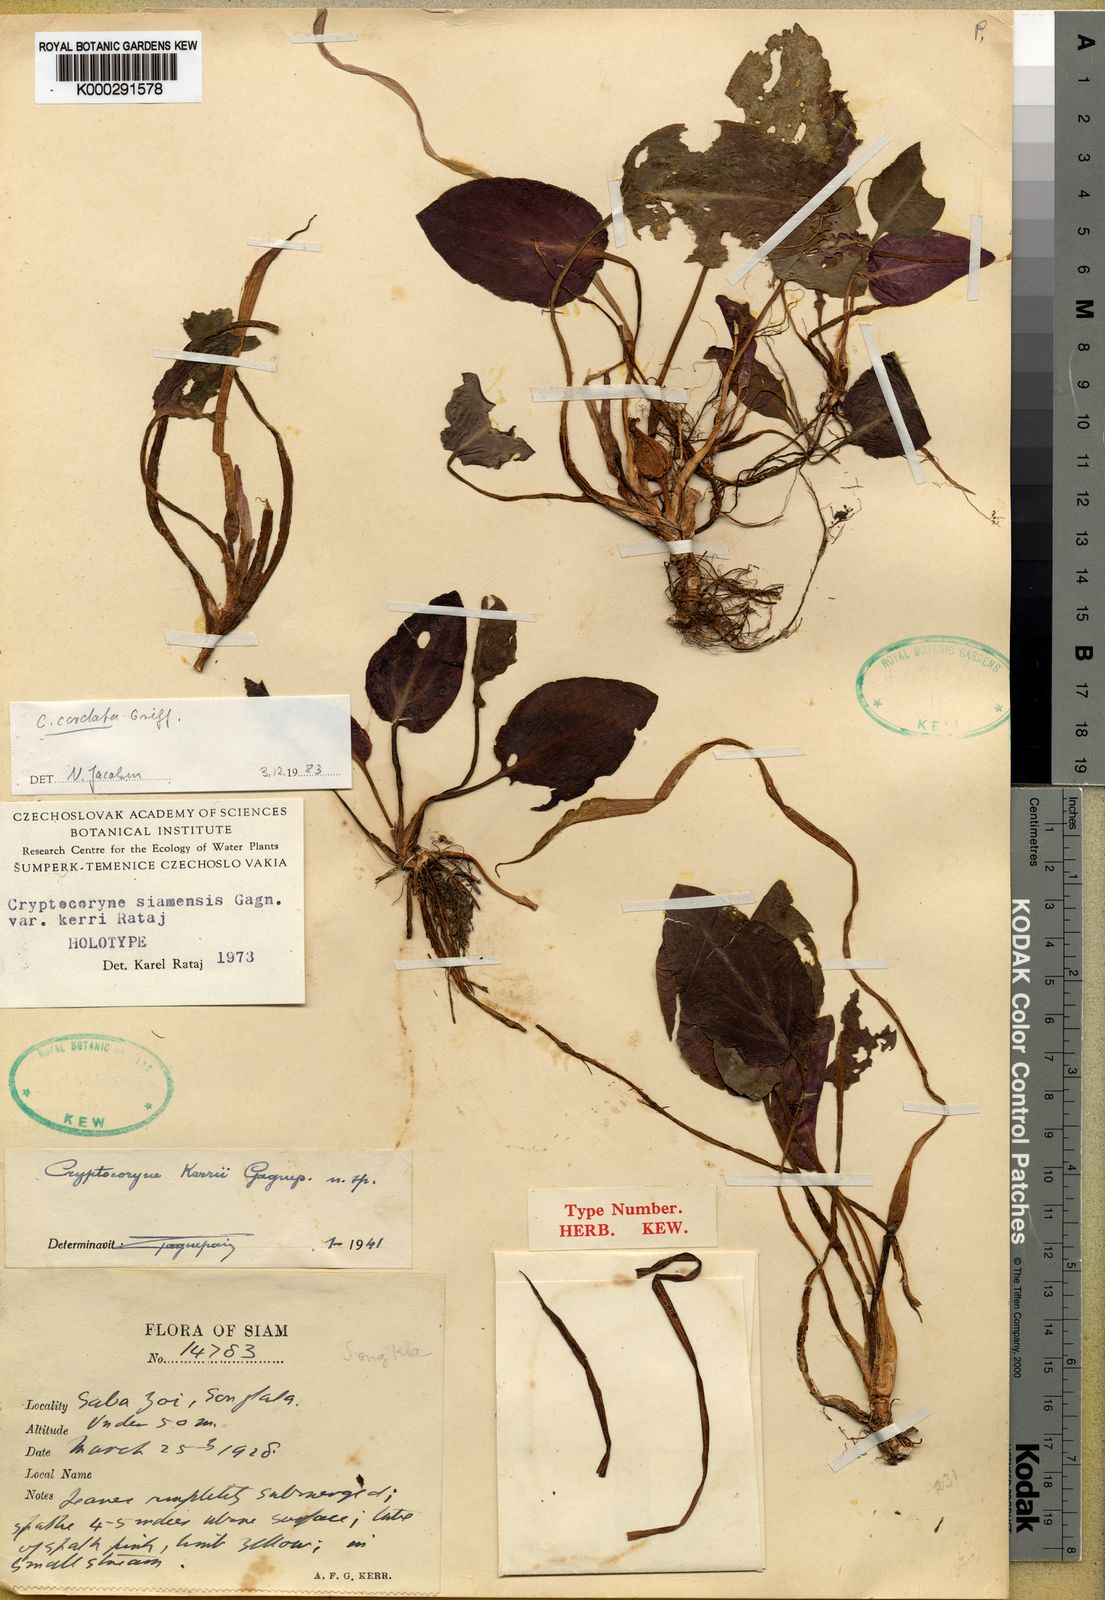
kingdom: Plantae
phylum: Tracheophyta
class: Liliopsida
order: Alismatales
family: Araceae
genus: Cryptocoryne
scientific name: Cryptocoryne cordata
